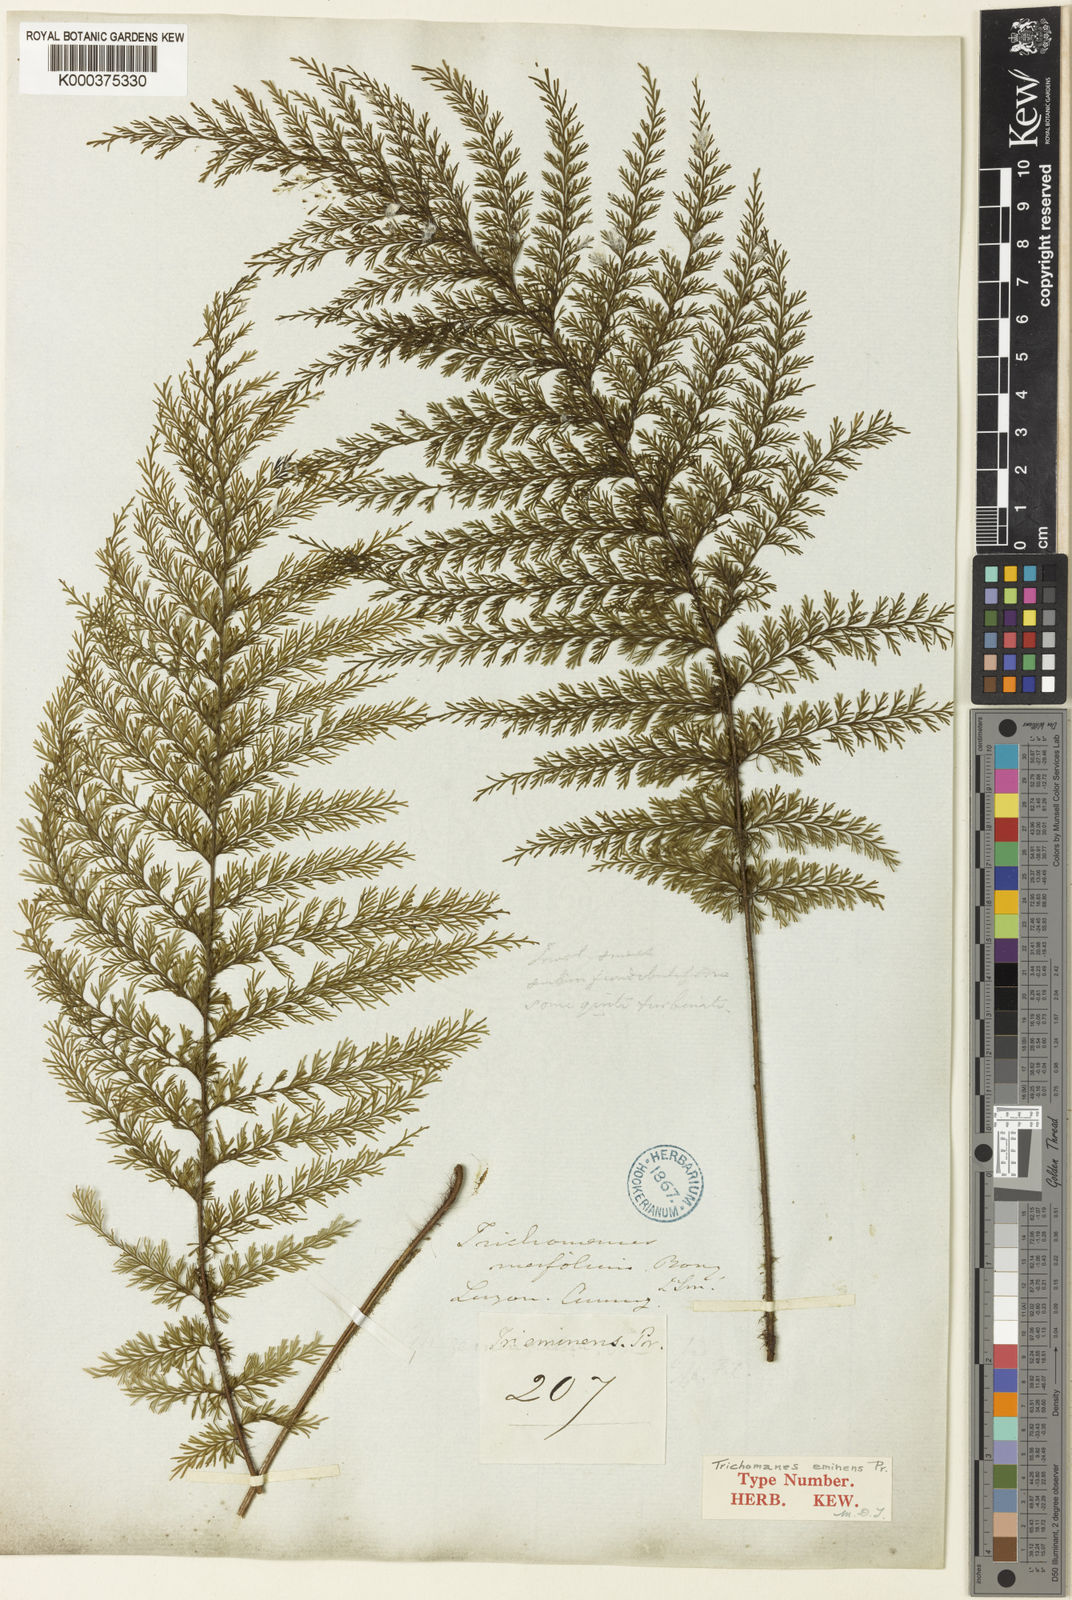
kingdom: Plantae
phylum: Tracheophyta
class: Polypodiopsida
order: Hymenophyllales
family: Hymenophyllaceae
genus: Callistopteris
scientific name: Callistopteris apiifolia
